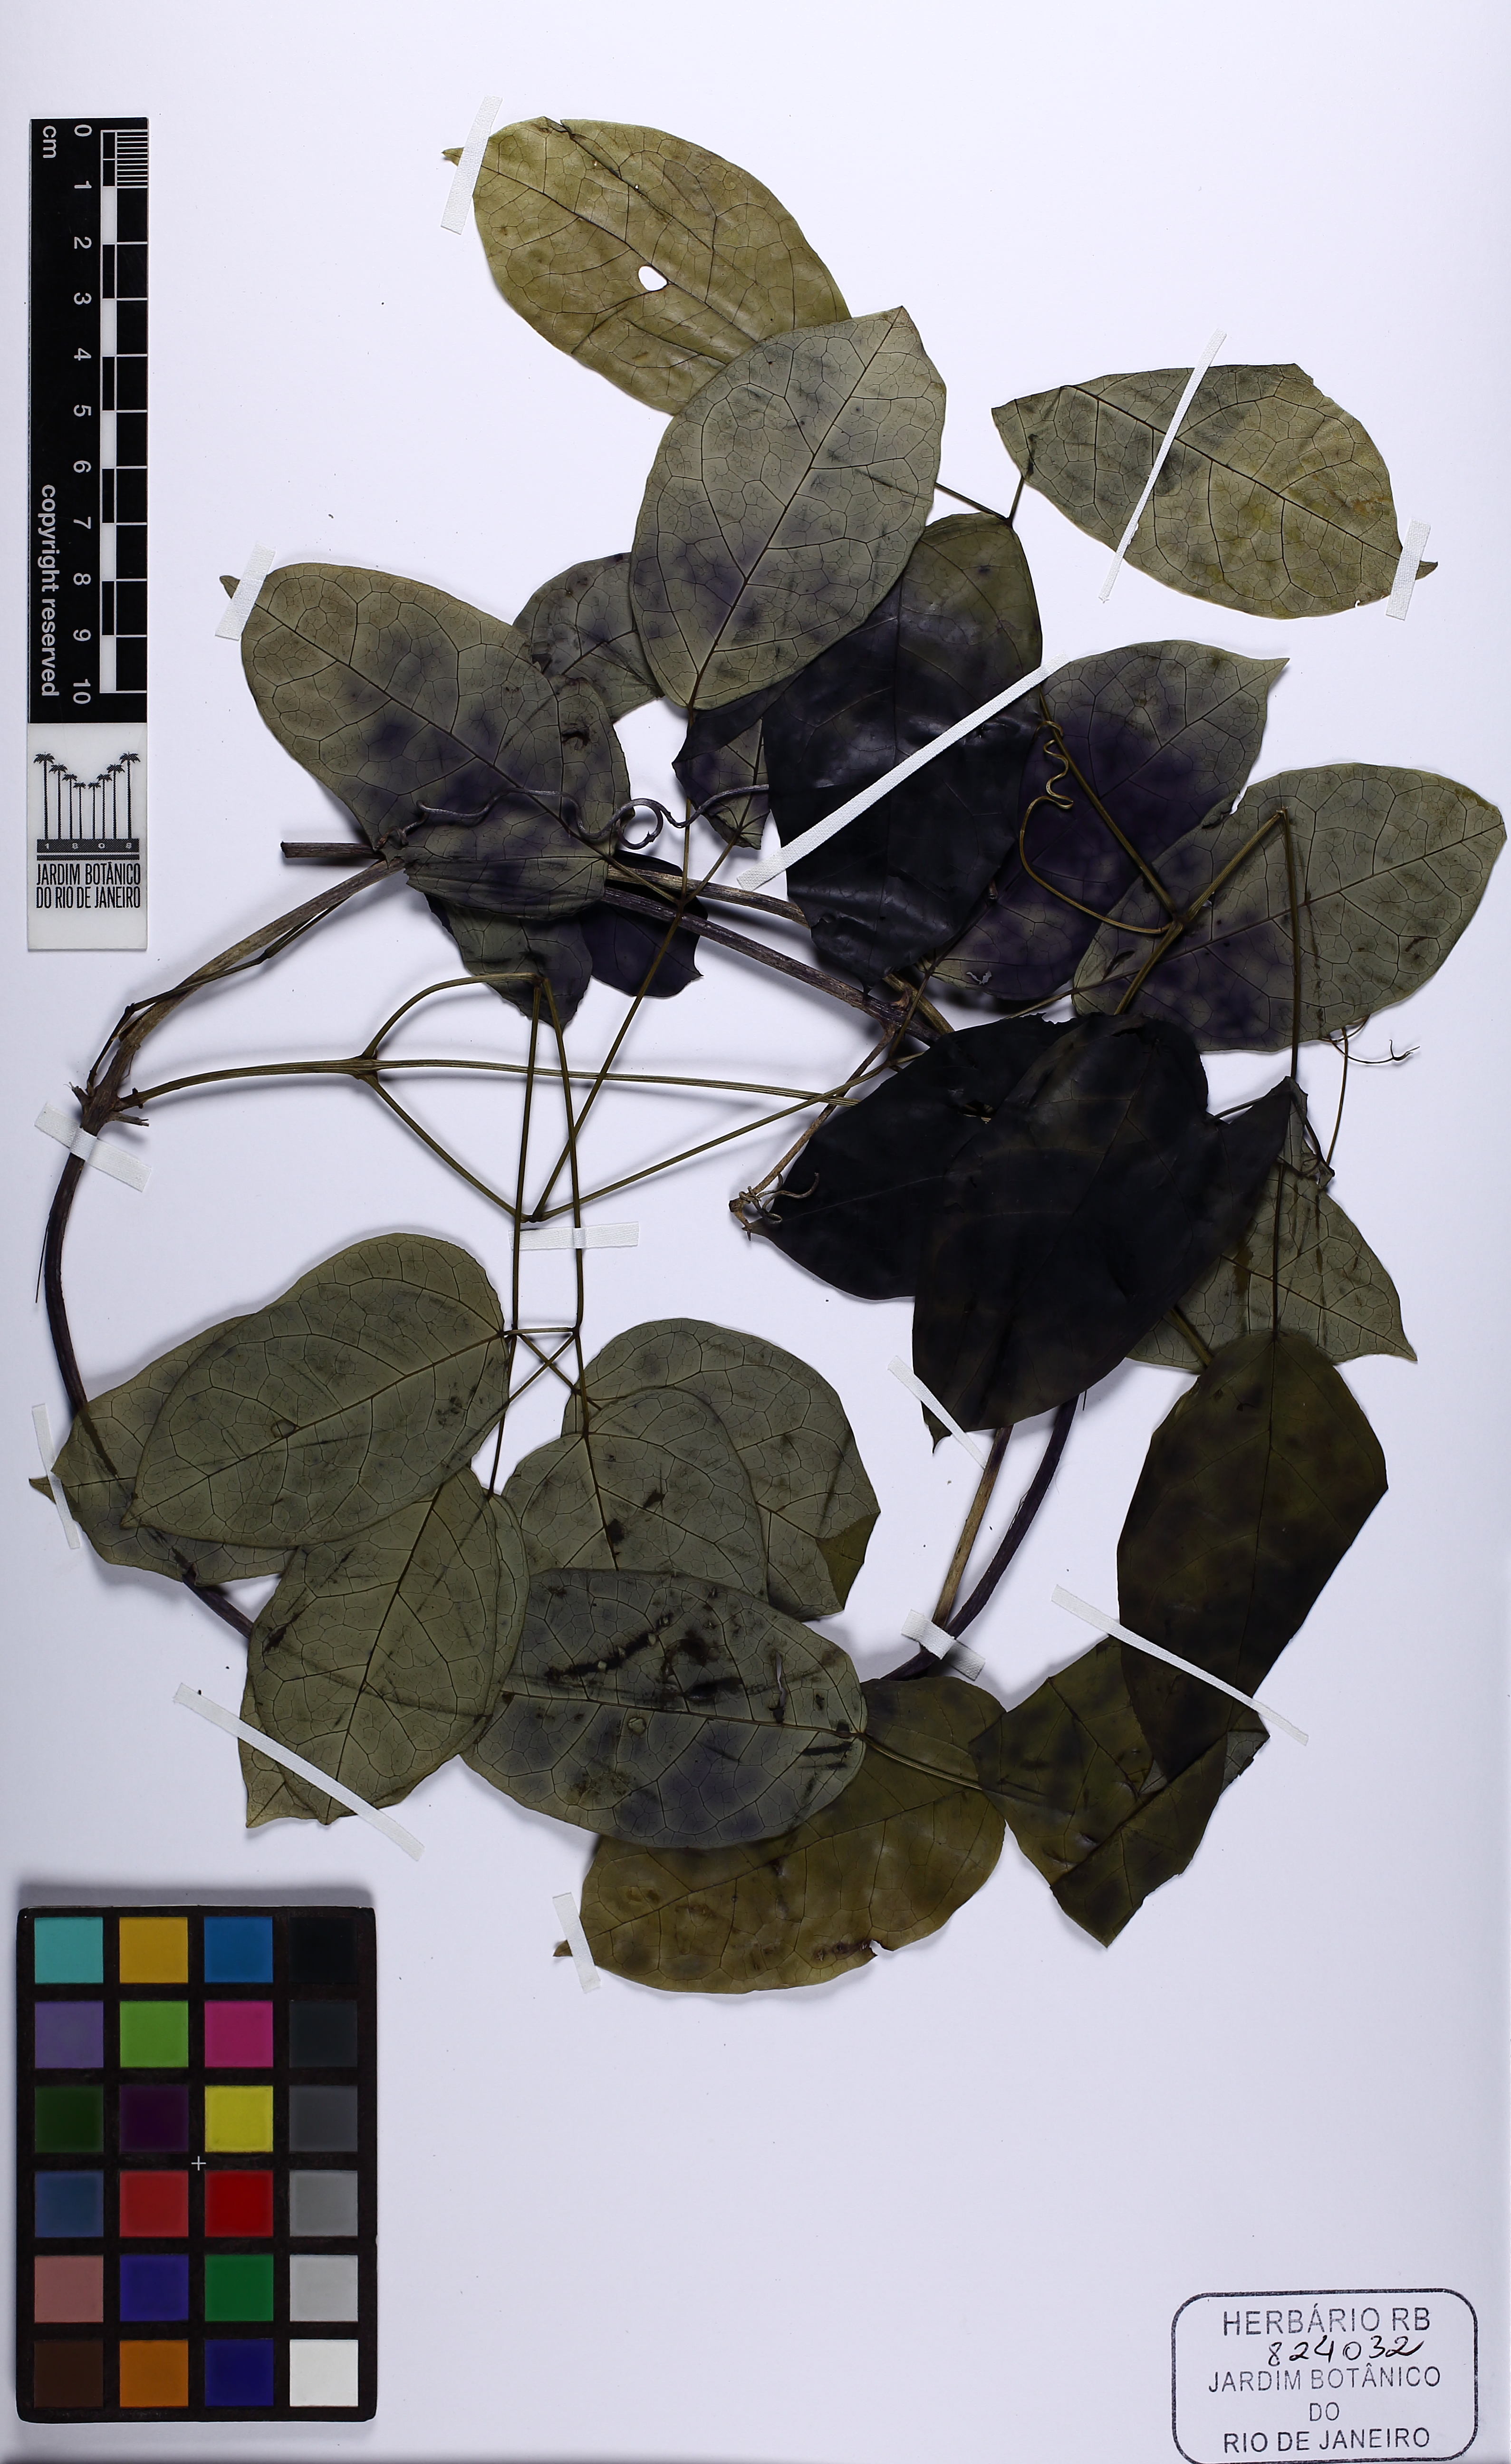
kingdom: Plantae
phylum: Tracheophyta
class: Magnoliopsida
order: Lamiales
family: Bignoniaceae
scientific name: Bignoniaceae
